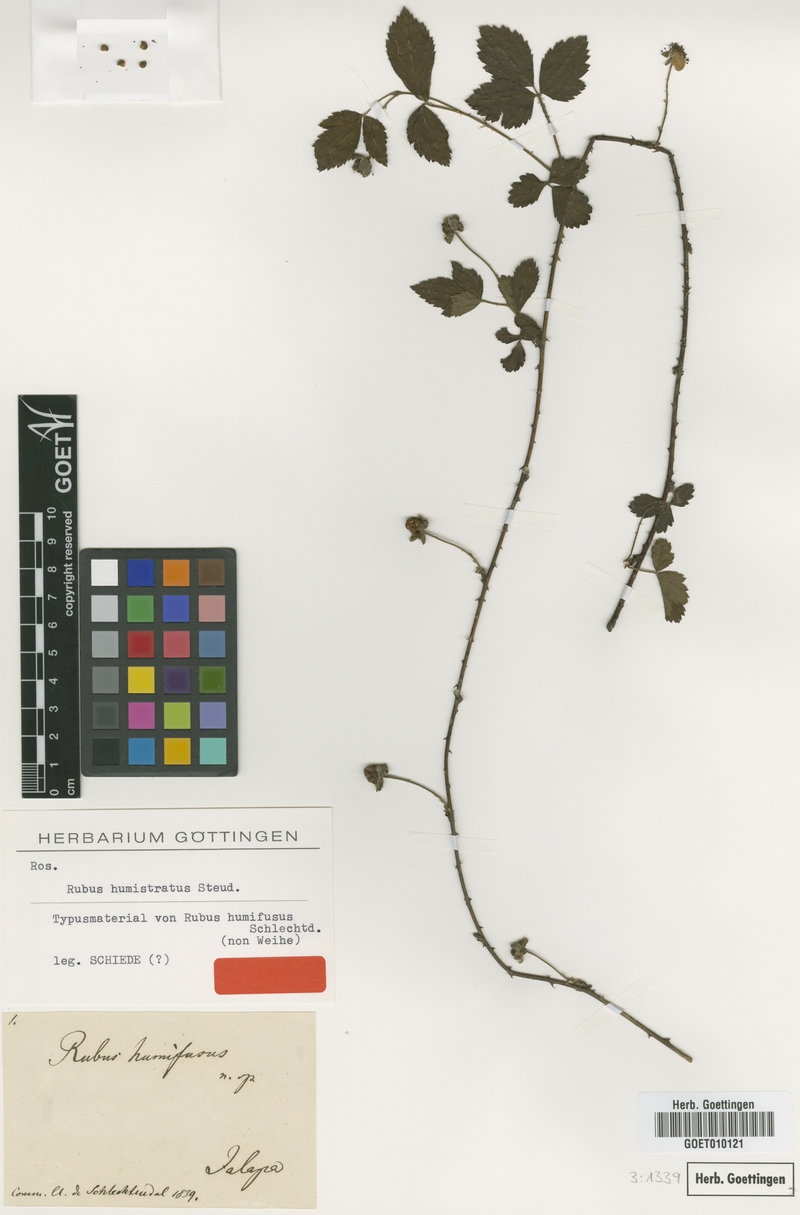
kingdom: Plantae
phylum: Tracheophyta
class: Magnoliopsida
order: Rosales
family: Rosaceae
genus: Rubus
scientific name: Rubus humistratus
